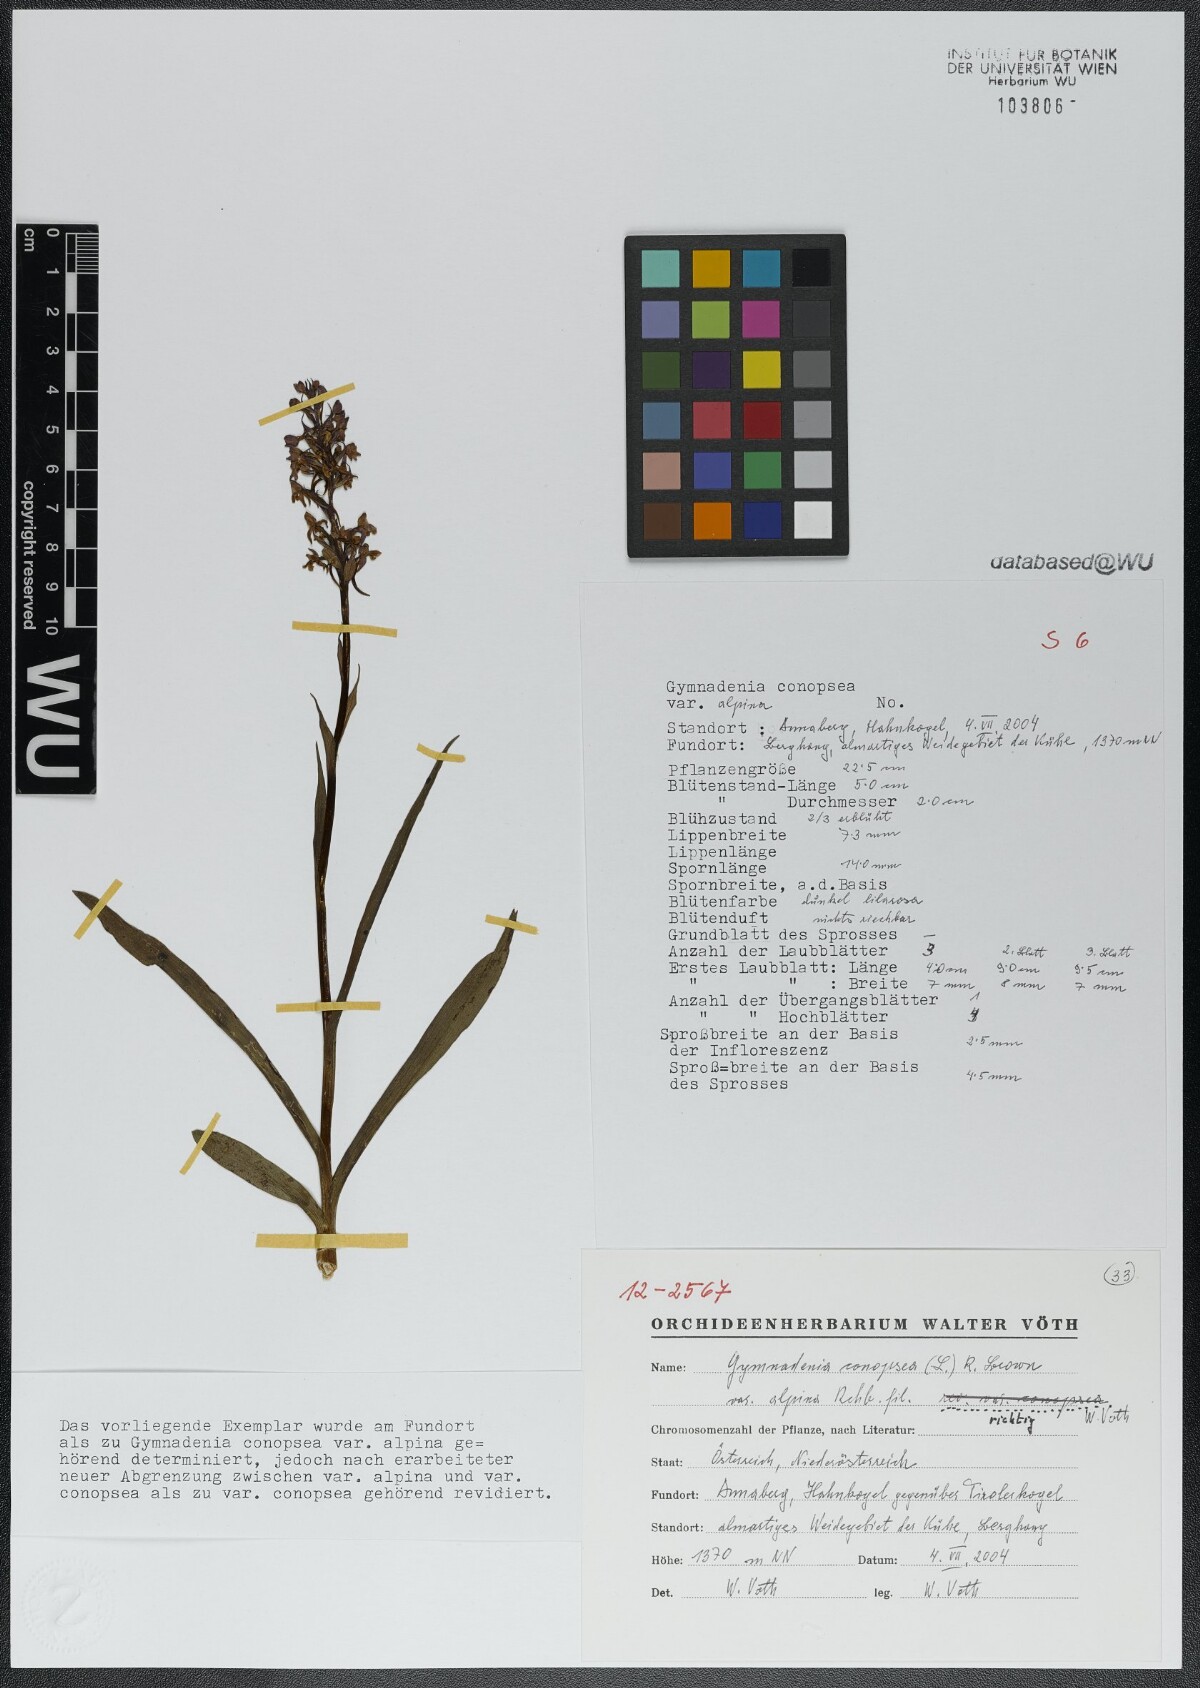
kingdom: Plantae
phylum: Tracheophyta
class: Liliopsida
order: Asparagales
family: Orchidaceae
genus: Gymnadenia
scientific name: Gymnadenia conopsea
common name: Fragrant orchid
